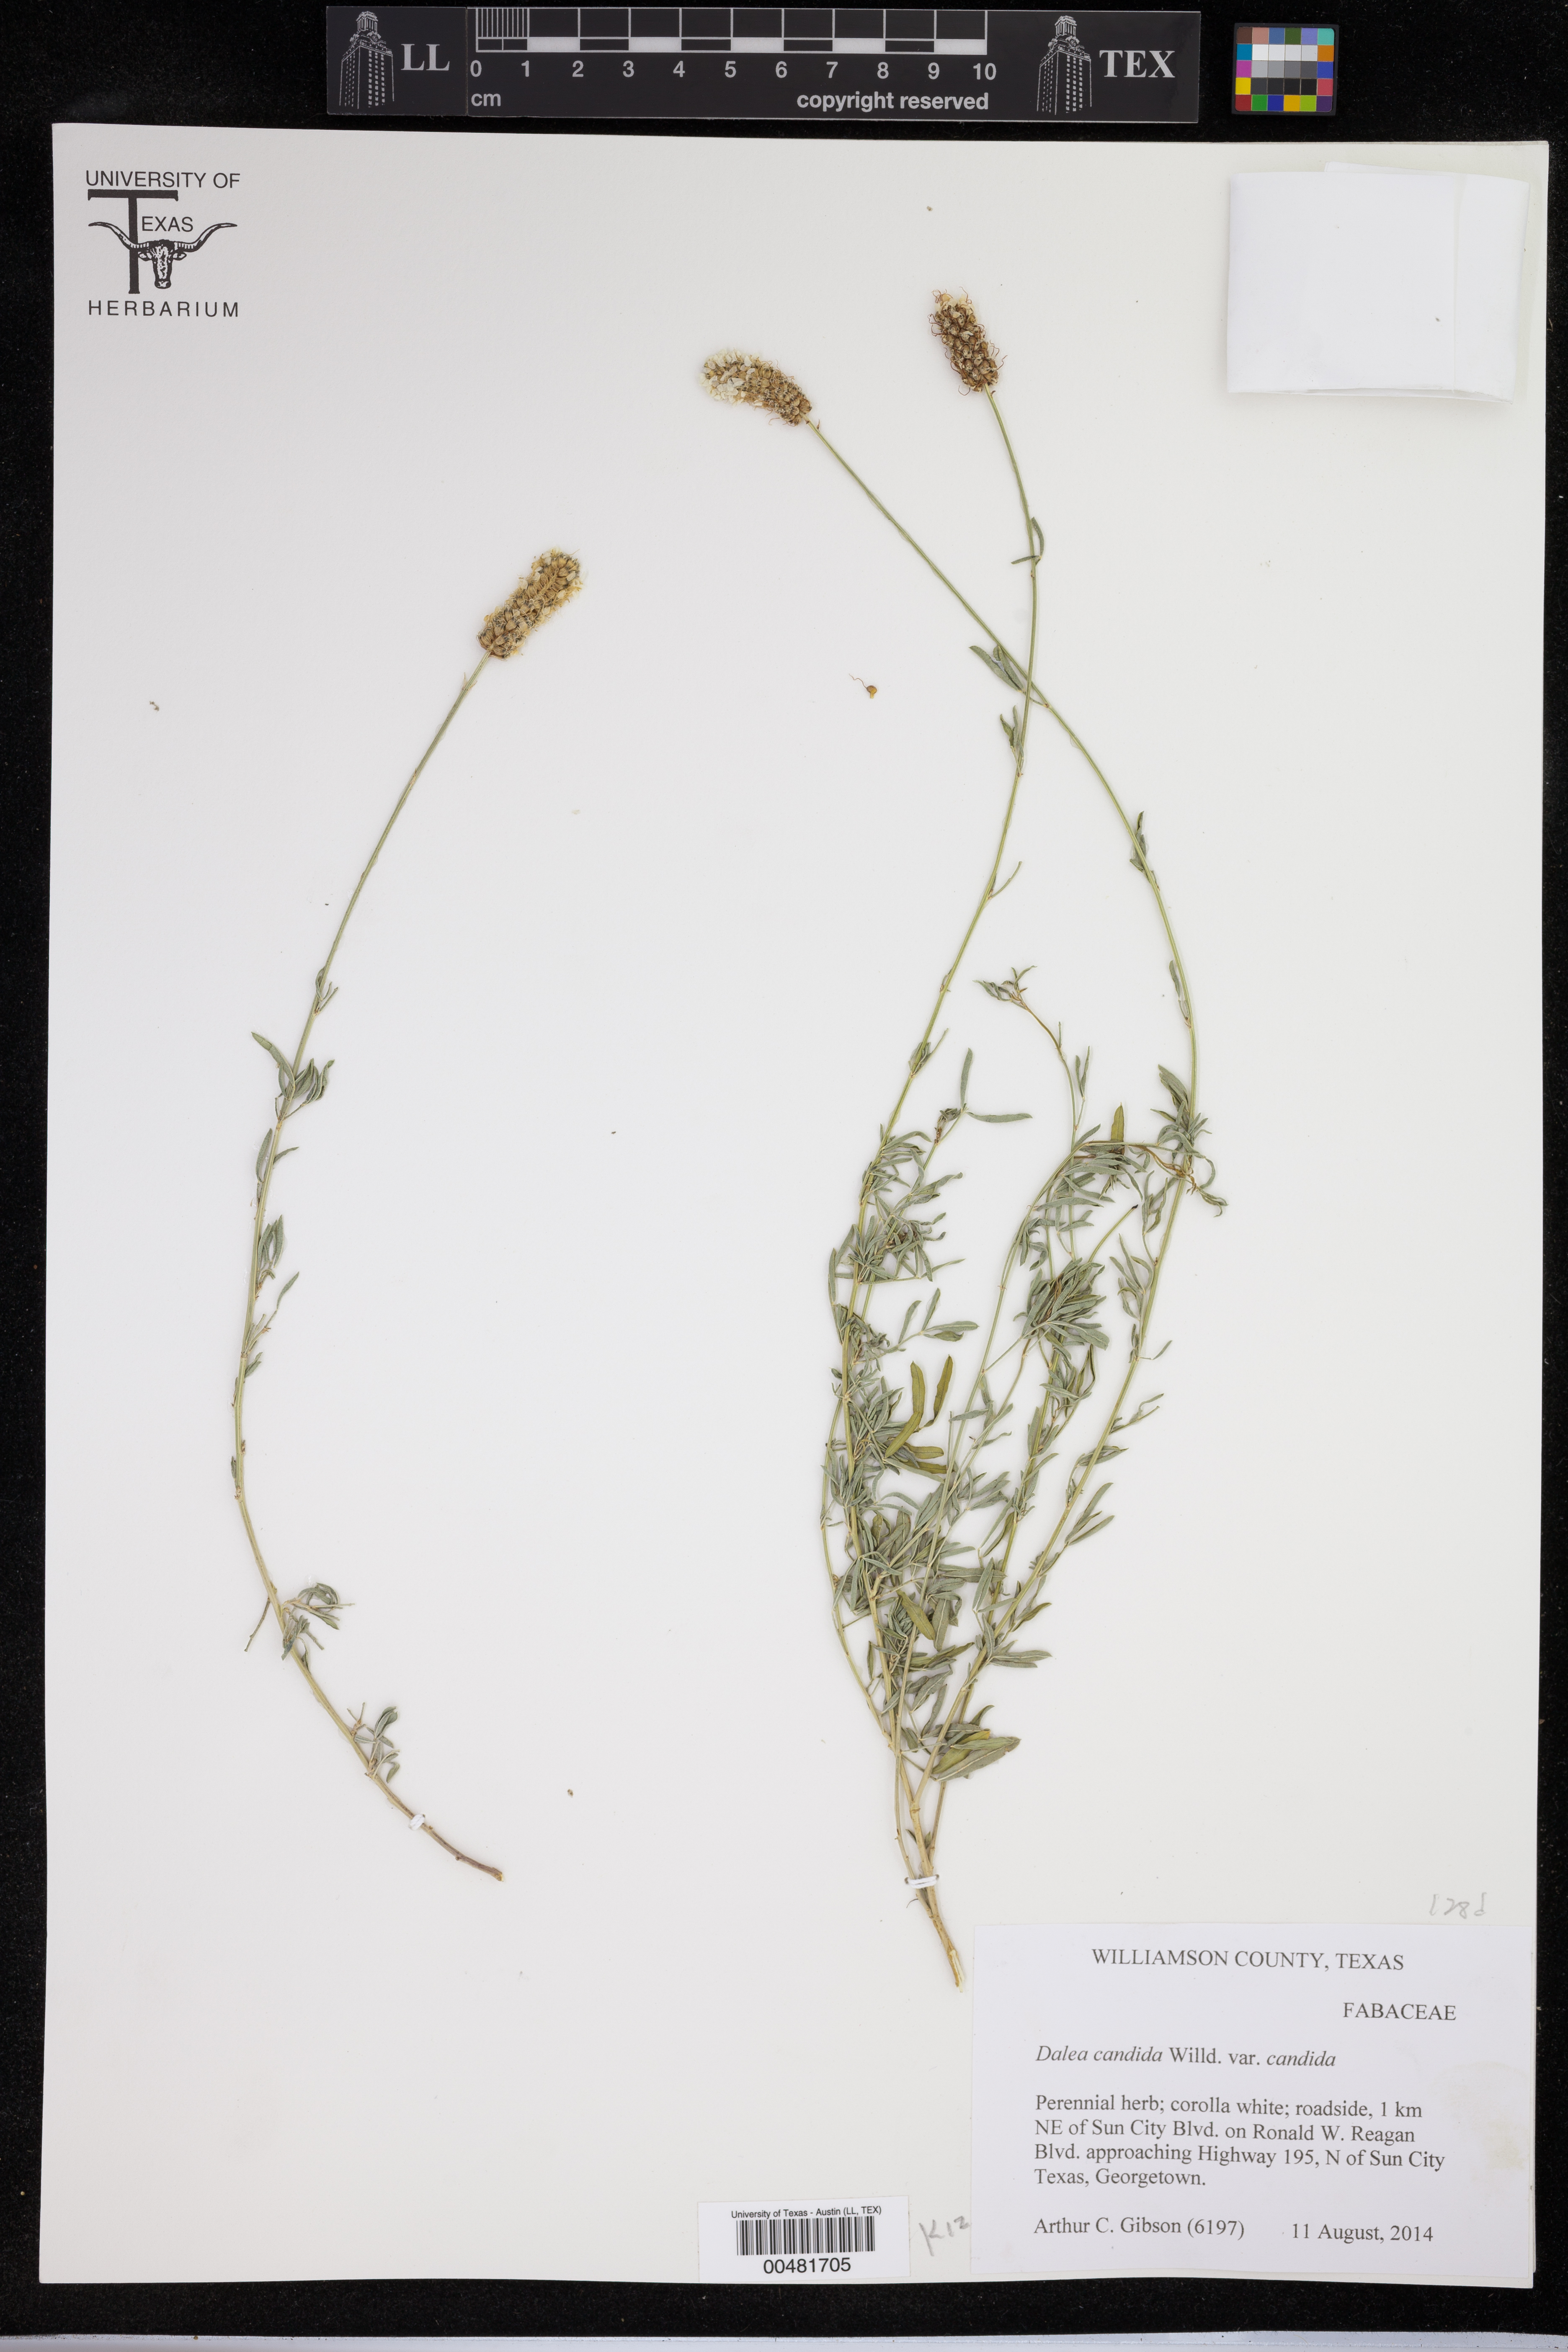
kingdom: Plantae
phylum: Tracheophyta
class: Magnoliopsida
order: Fabales
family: Fabaceae
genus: Dalea
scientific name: Dalea candida
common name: White prairie-clover
